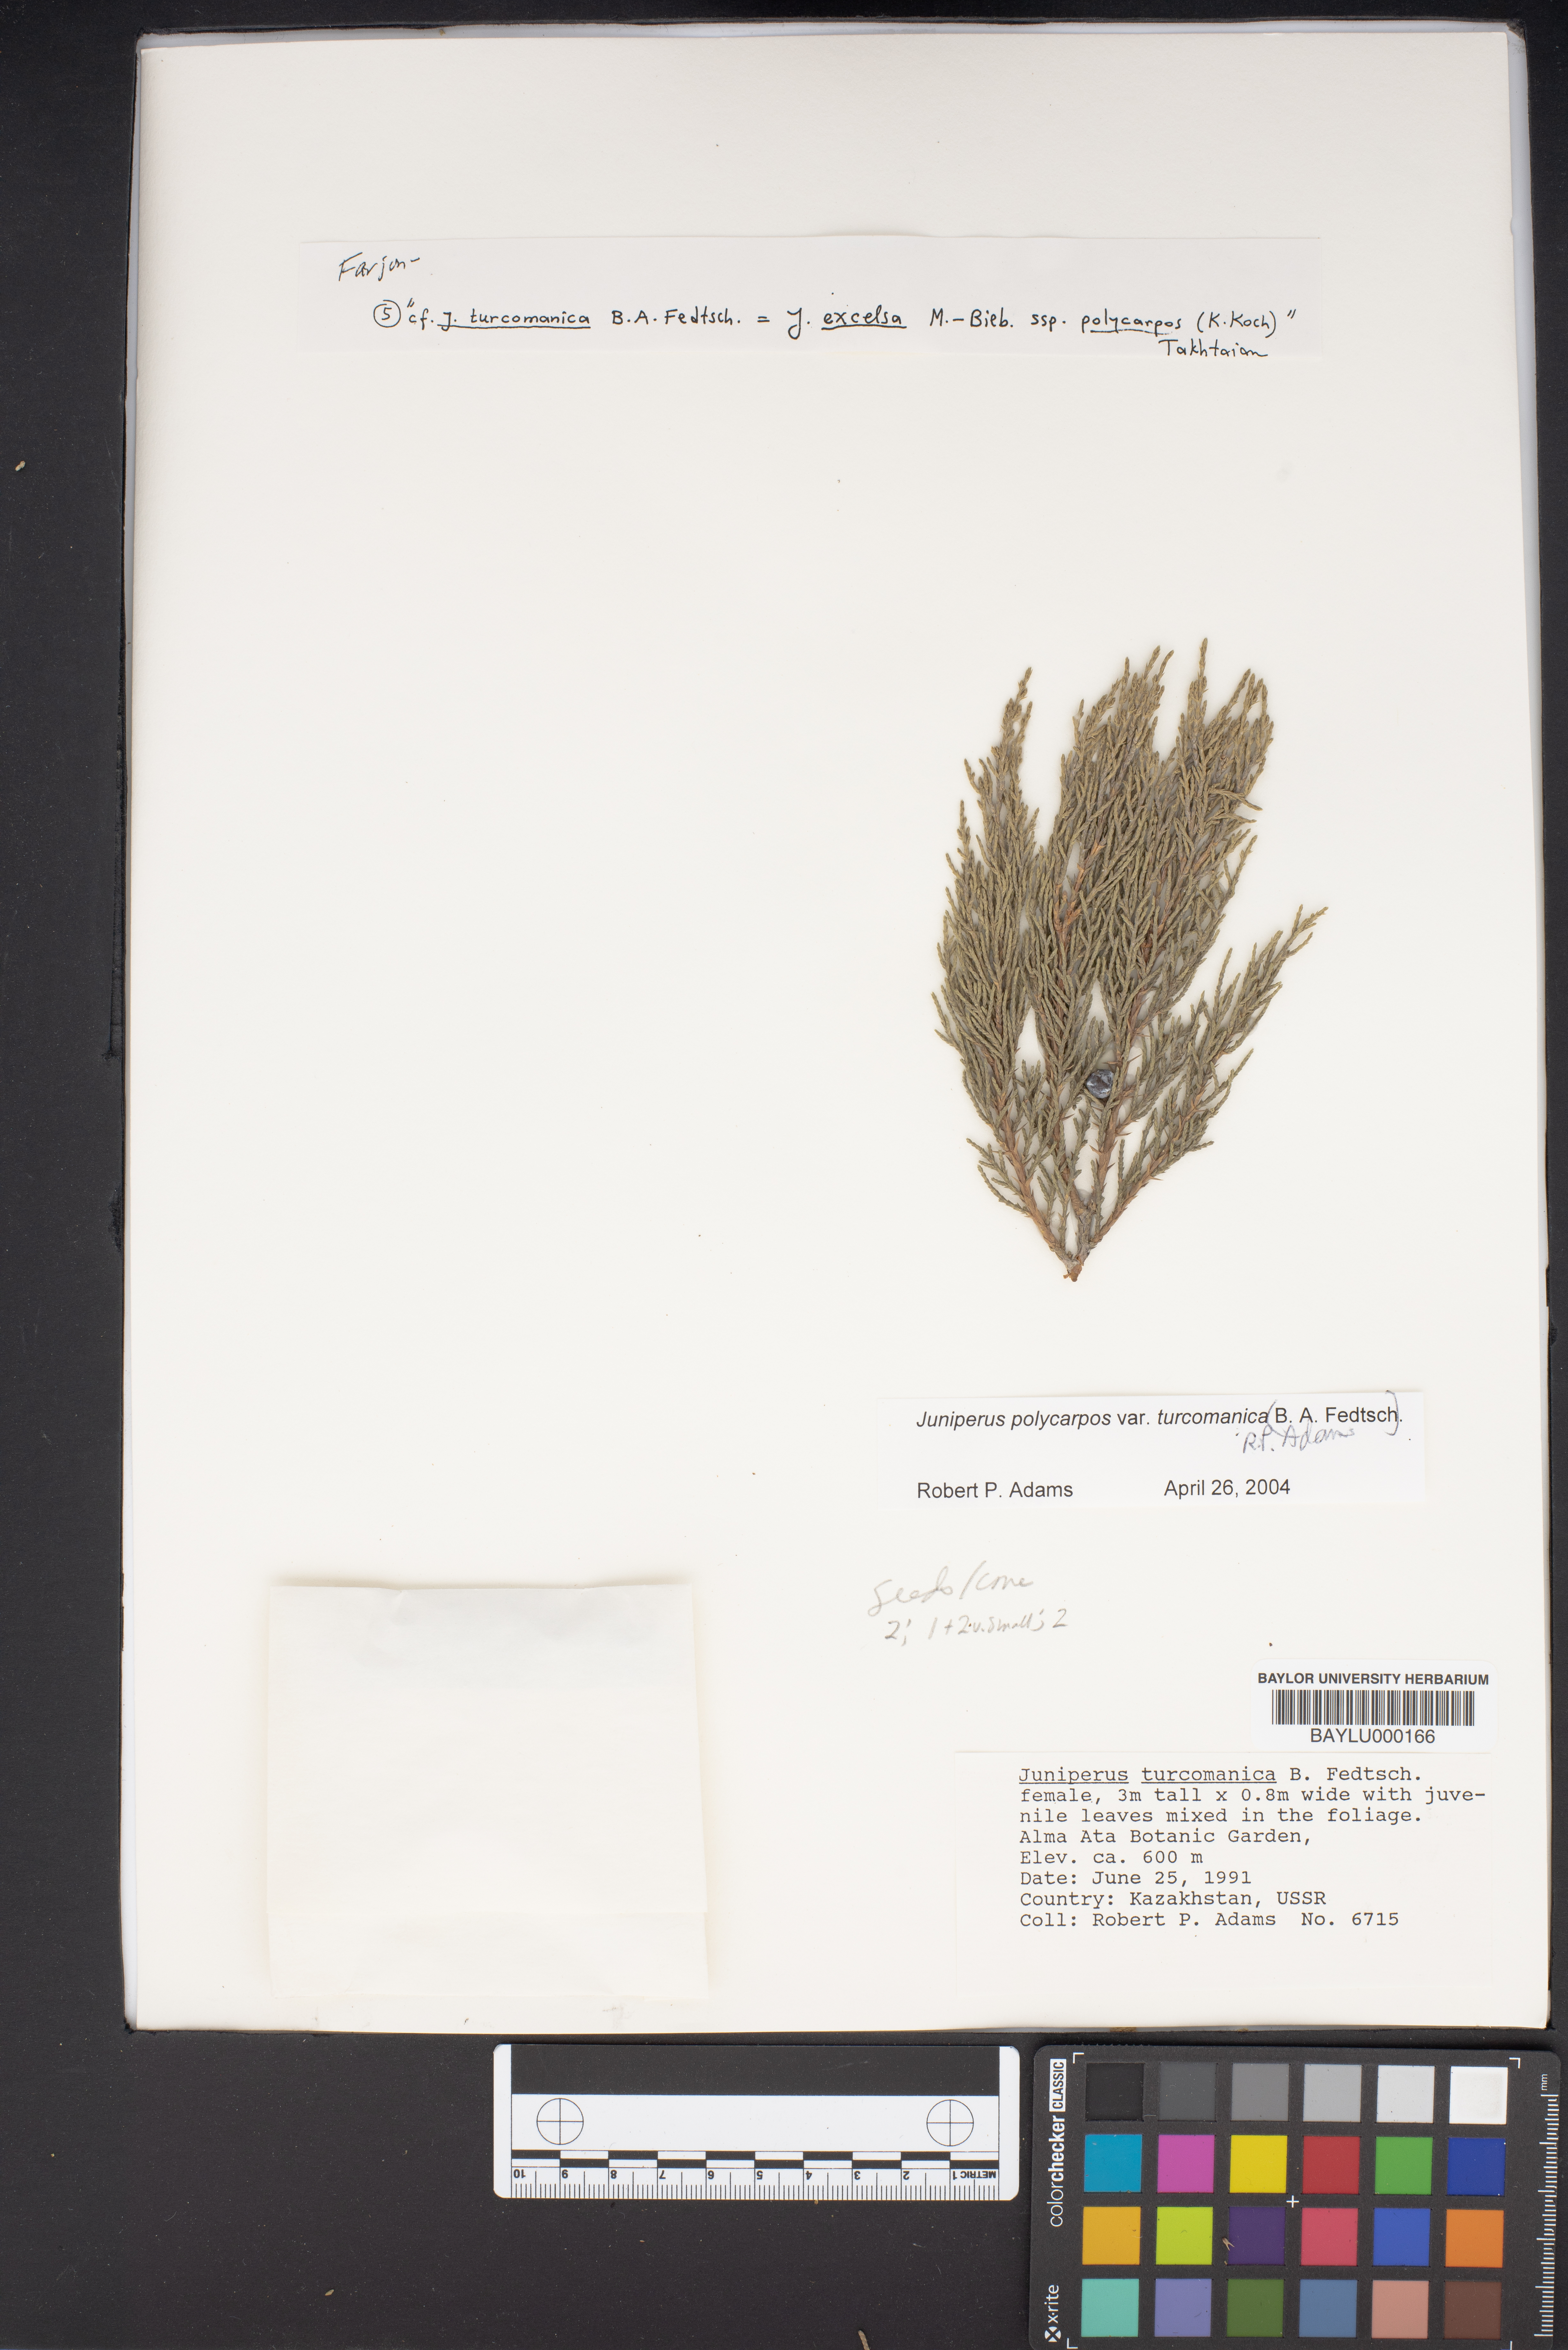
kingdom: Plantae
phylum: Tracheophyta
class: Pinopsida
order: Pinales
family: Cupressaceae
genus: Juniperus
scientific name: Juniperus pseudosabina
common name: Turkestan juniper
